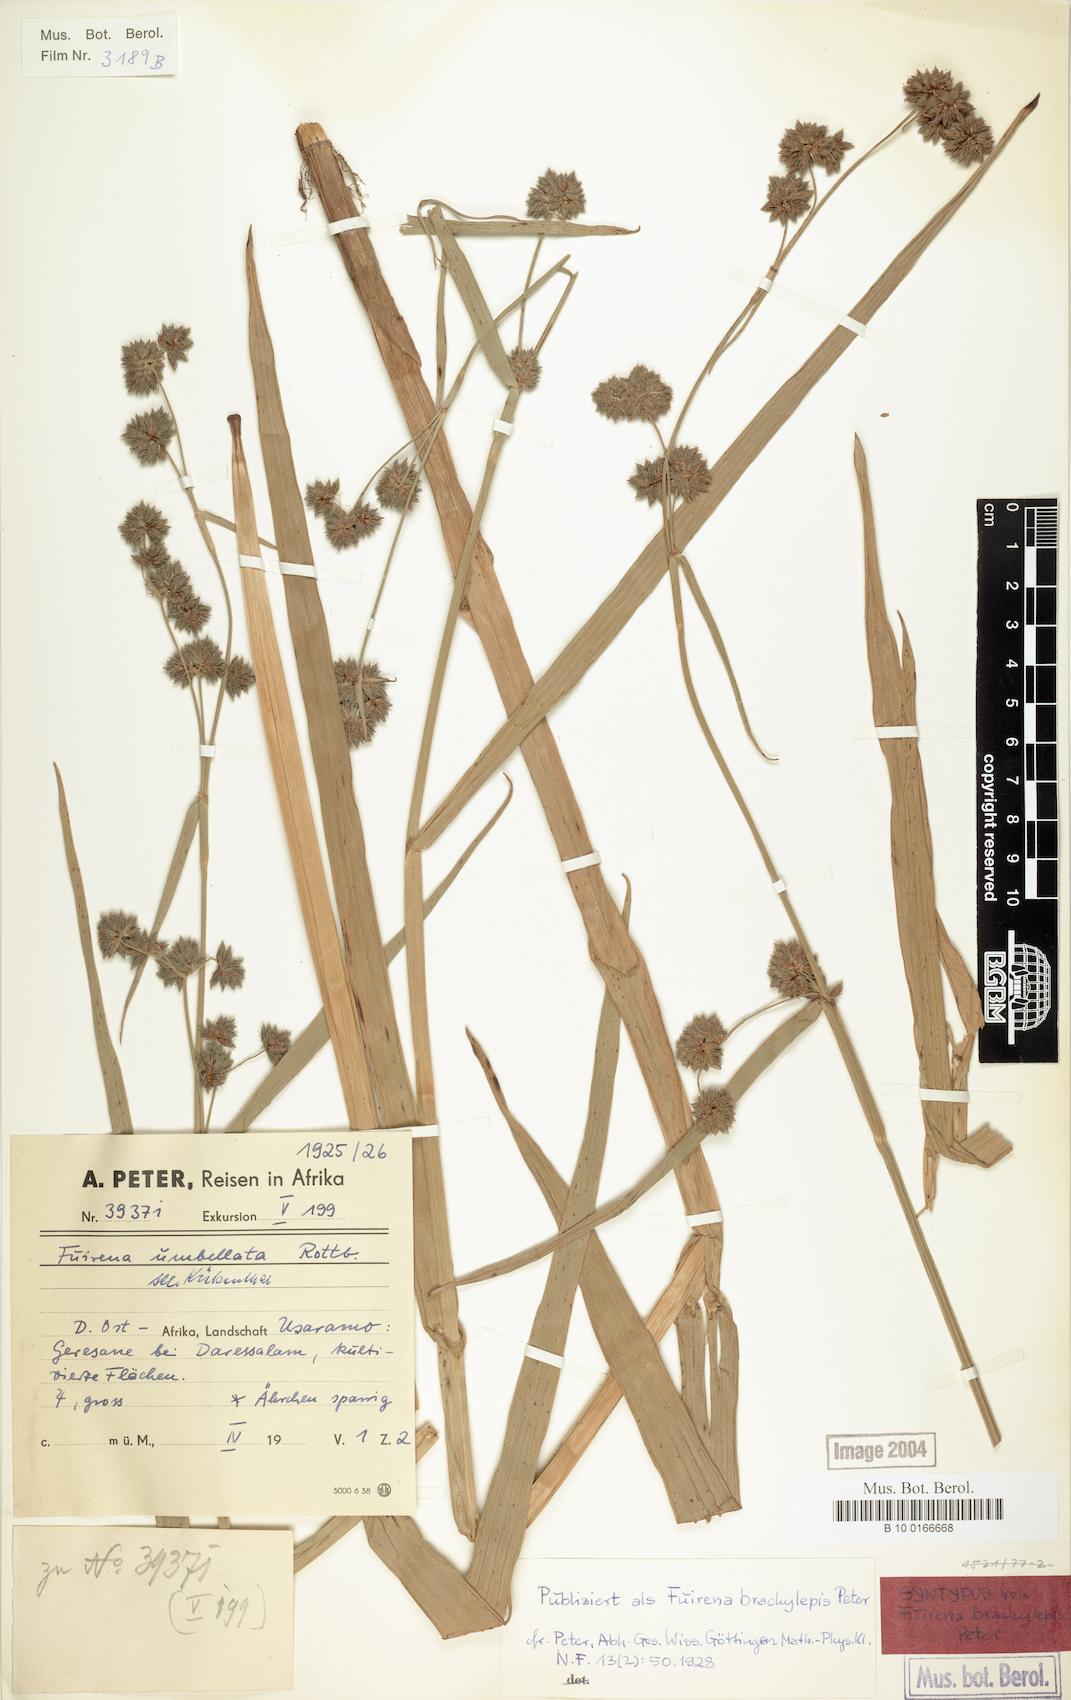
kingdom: Plantae
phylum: Tracheophyta
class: Liliopsida
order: Poales
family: Cyperaceae
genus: Fuirena
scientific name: Fuirena umbellata
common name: Yefen
